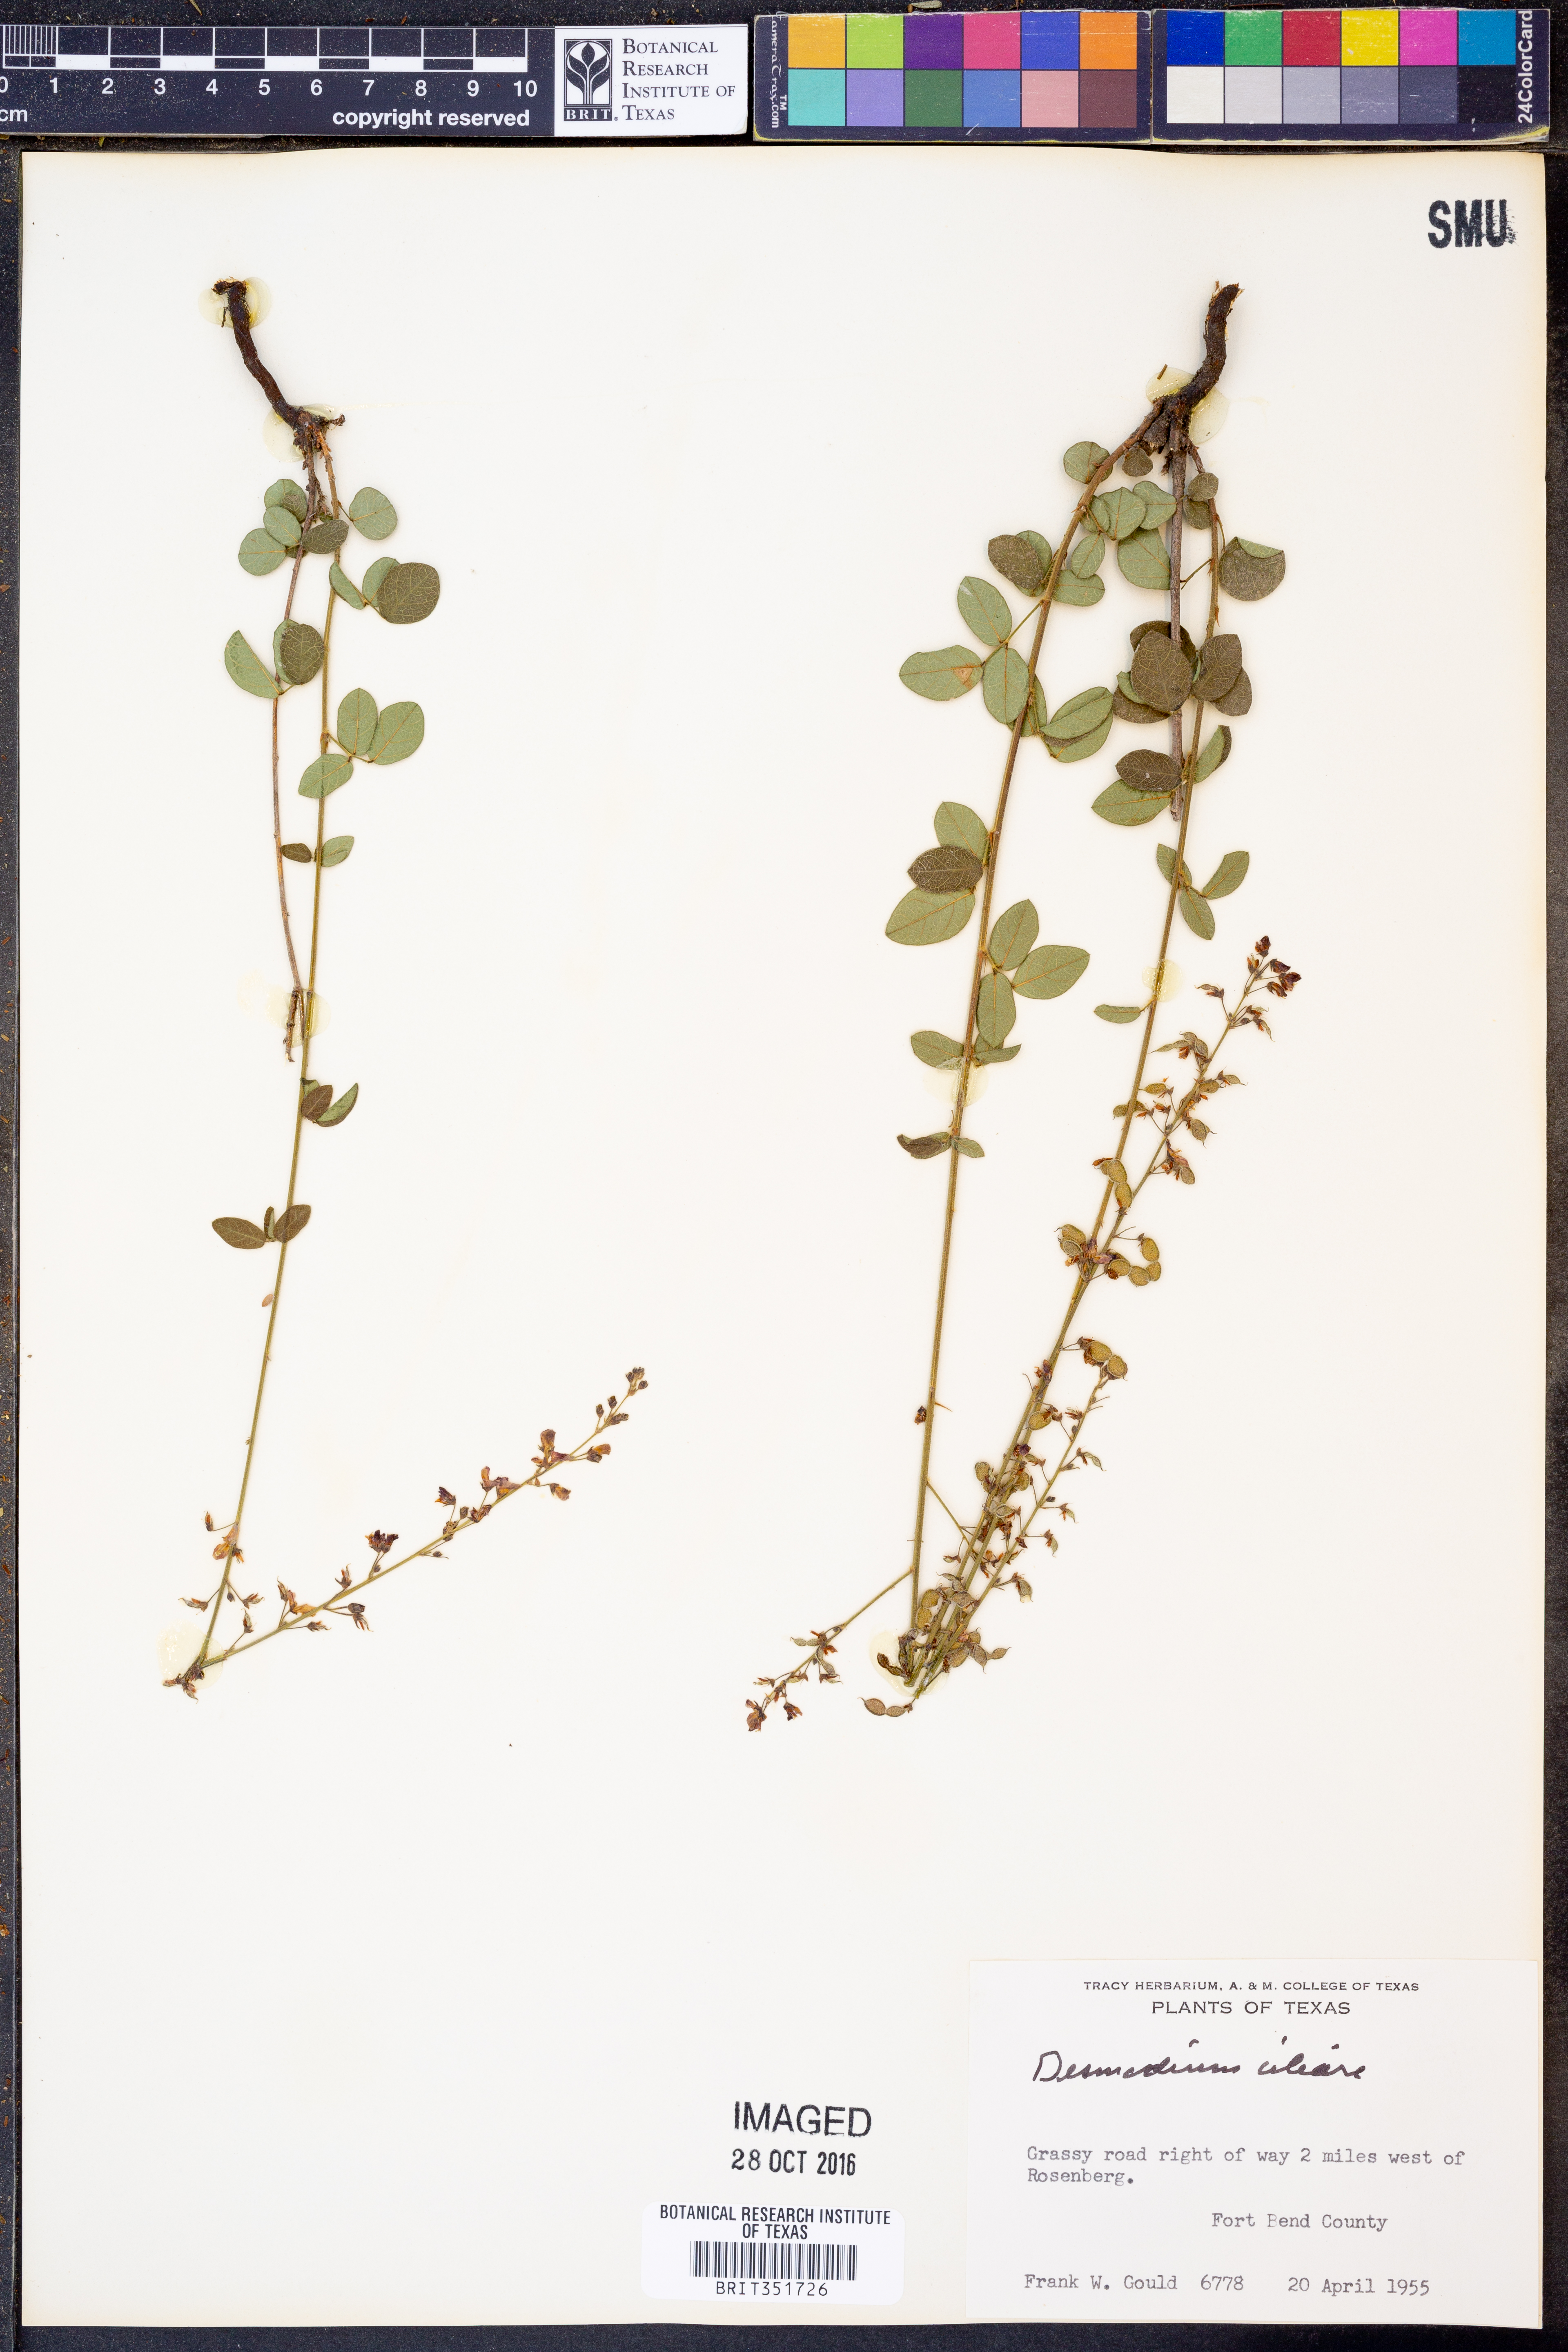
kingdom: Plantae
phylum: Tracheophyta
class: Magnoliopsida
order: Fabales
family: Fabaceae
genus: Desmodium
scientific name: Desmodium ciliare
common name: Hairy small-leaf ticktrefoil
